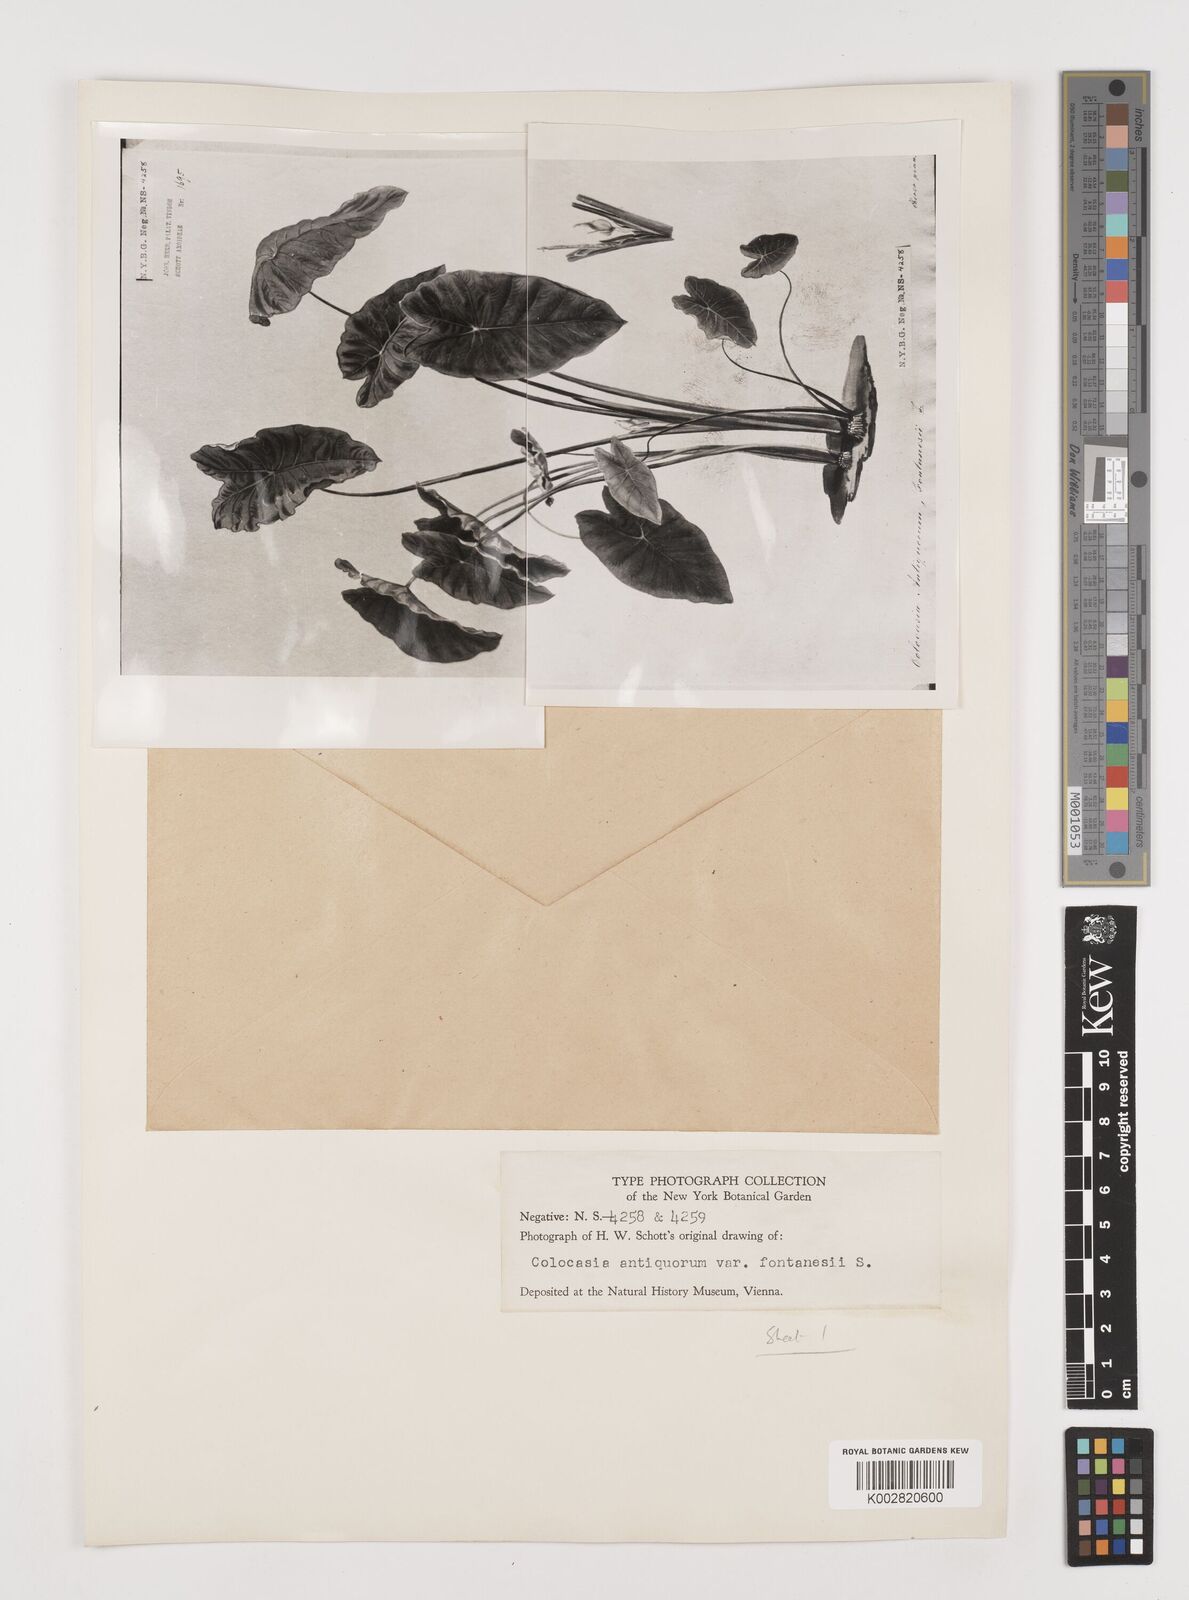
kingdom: Plantae
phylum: Tracheophyta
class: Liliopsida
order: Alismatales
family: Araceae
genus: Colocasia
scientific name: Colocasia esculenta
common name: Taro
